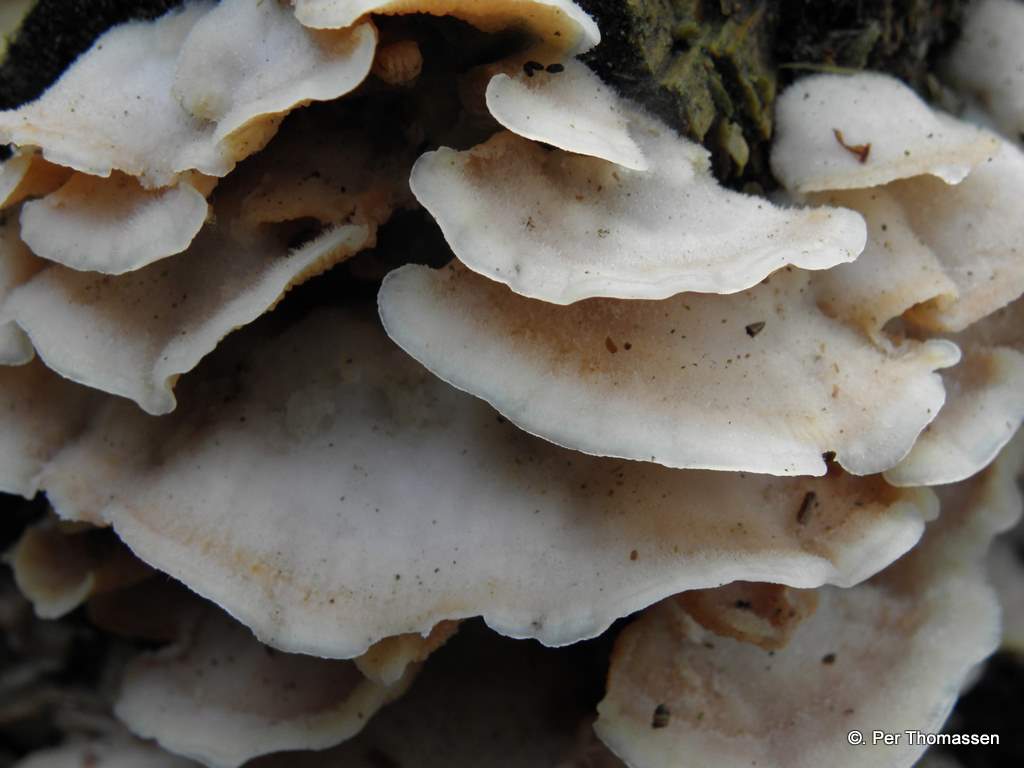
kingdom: Fungi
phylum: Basidiomycota
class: Agaricomycetes
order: Polyporales
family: Meruliaceae
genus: Phlebia
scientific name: Phlebia tremellosa
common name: bævrende åresvamp
